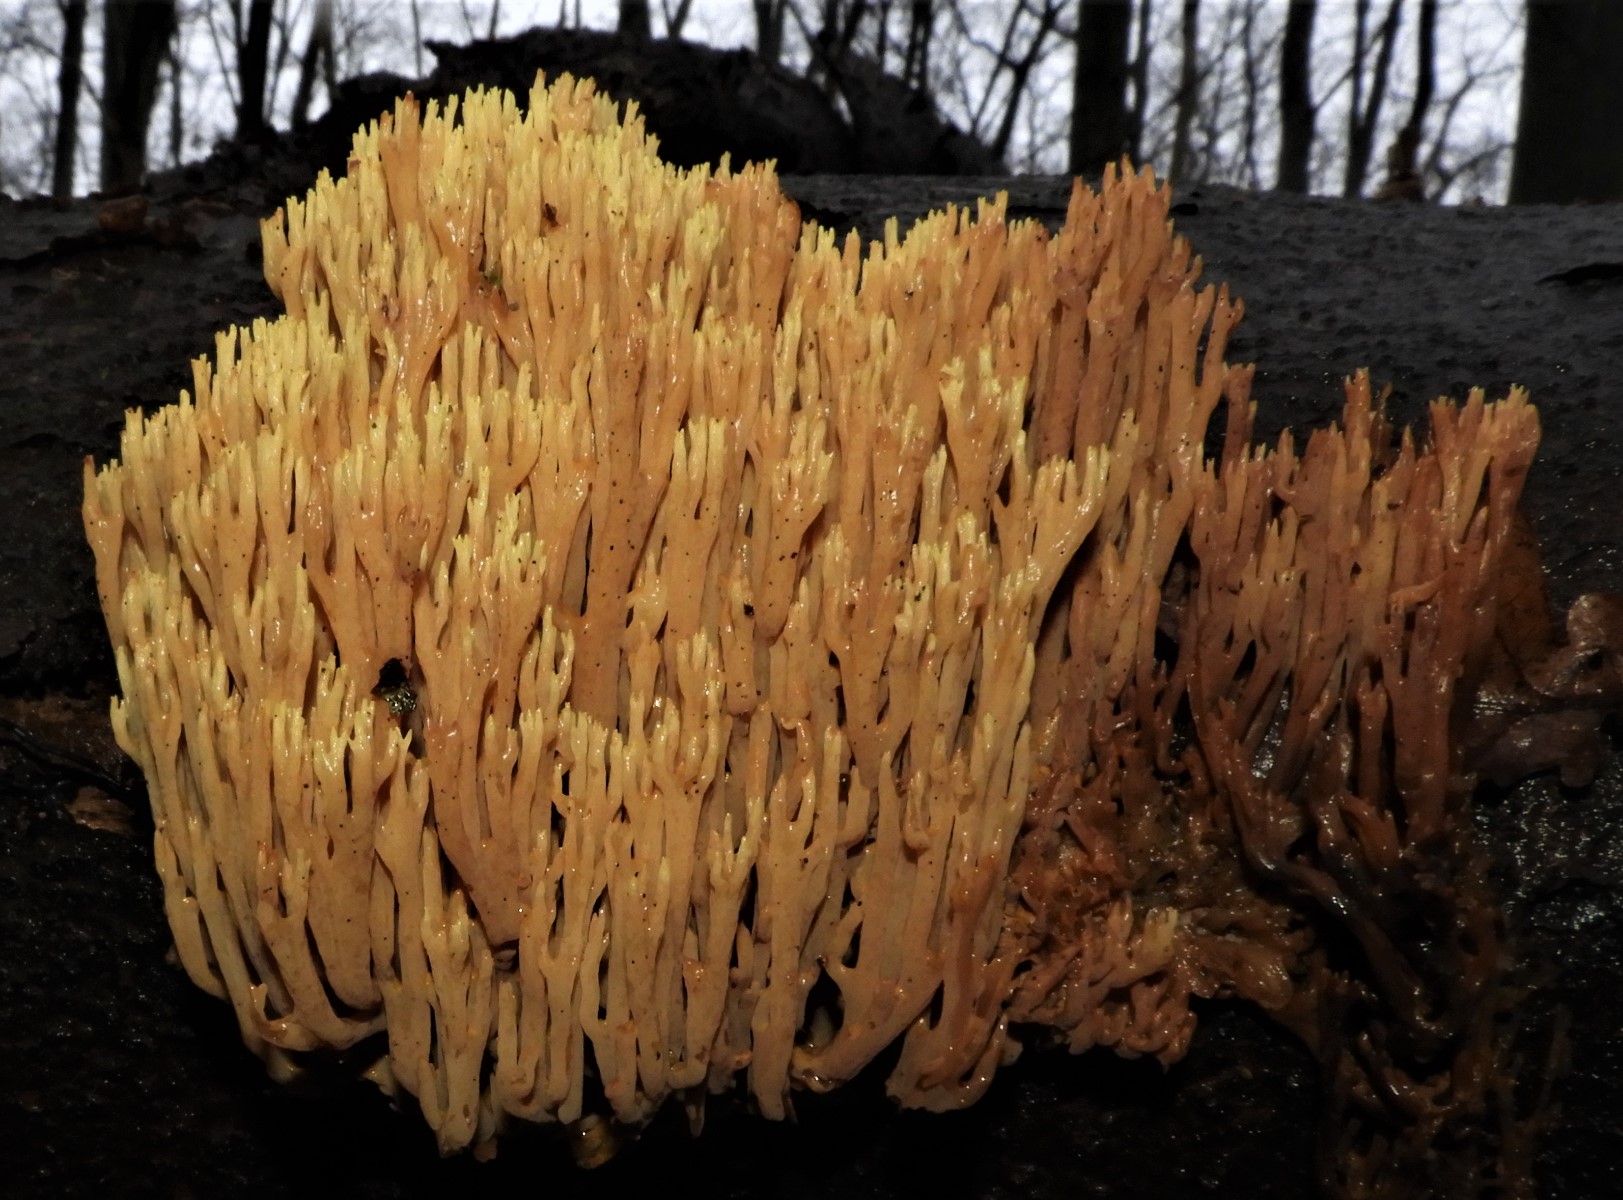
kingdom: Fungi
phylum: Basidiomycota
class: Agaricomycetes
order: Gomphales
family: Gomphaceae
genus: Ramaria
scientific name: Ramaria stricta
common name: rank koralsvamp
